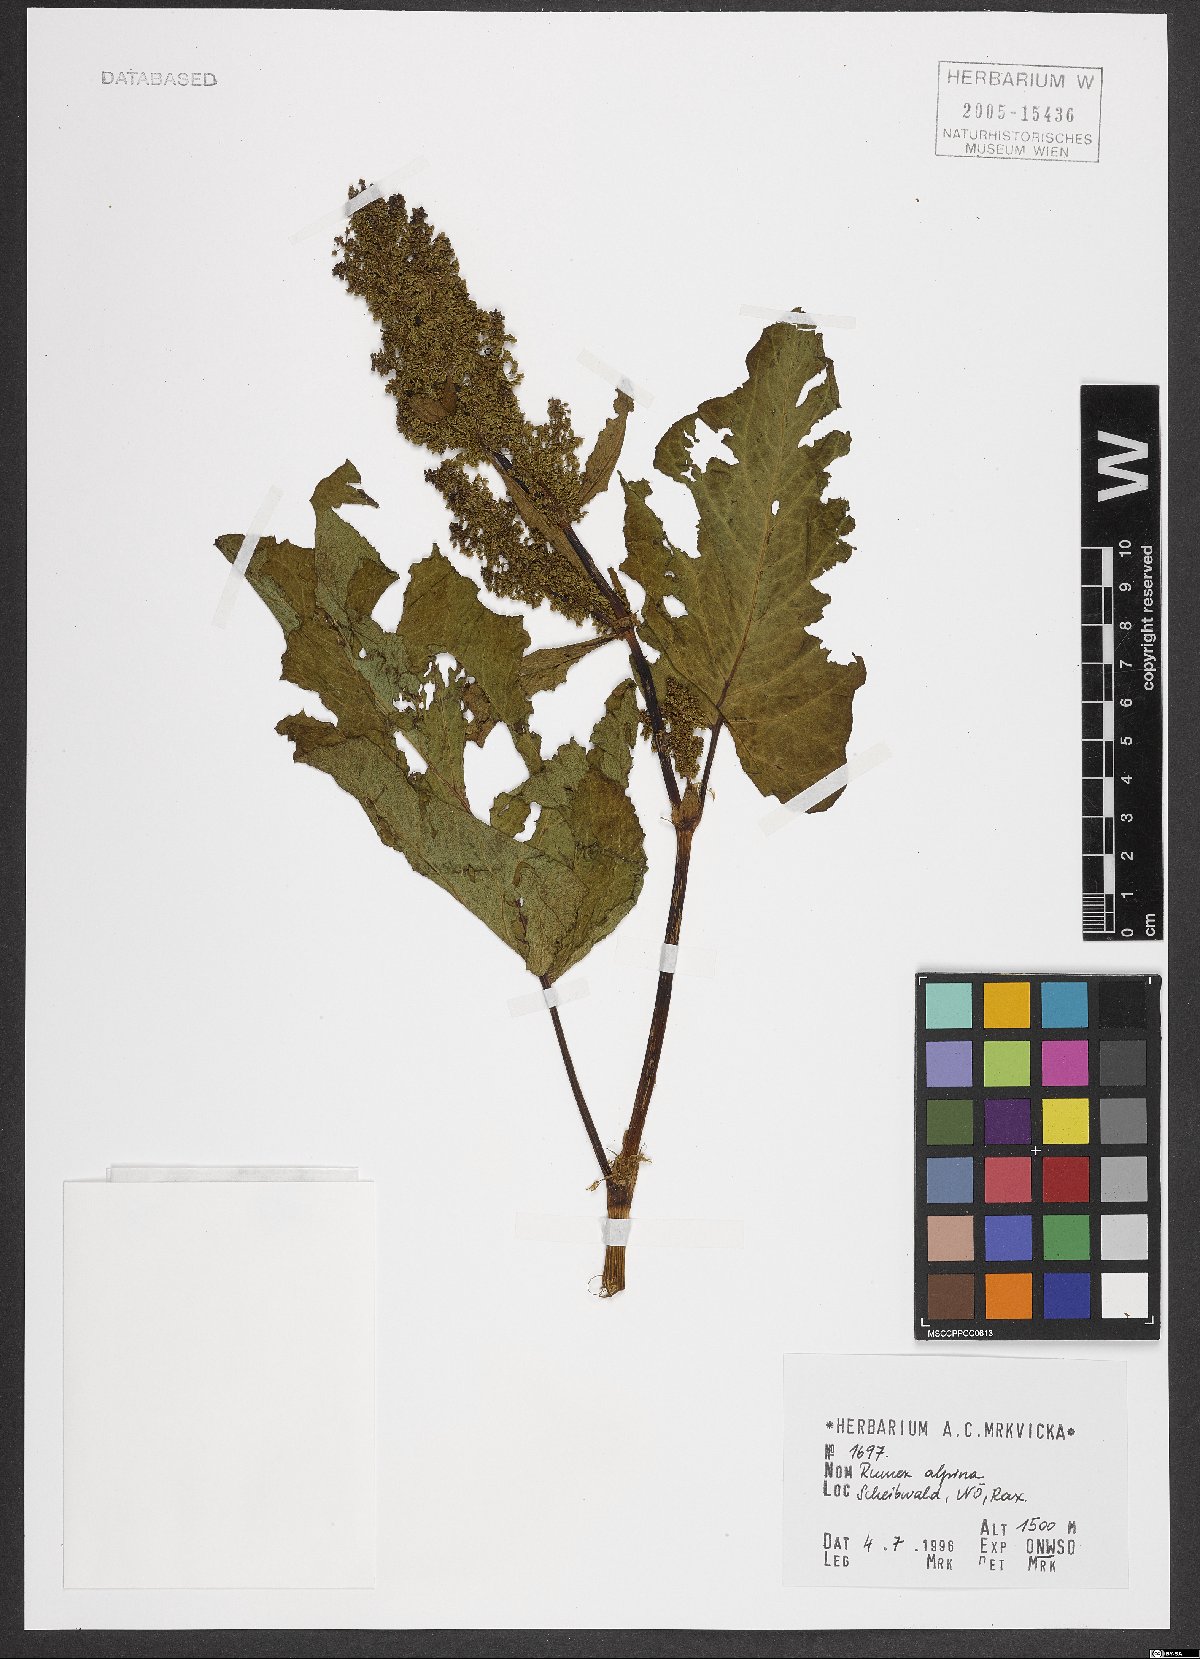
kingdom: Plantae
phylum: Tracheophyta
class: Magnoliopsida
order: Caryophyllales
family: Polygonaceae
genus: Rumex
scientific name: Rumex alpinus
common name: Alpine dock
